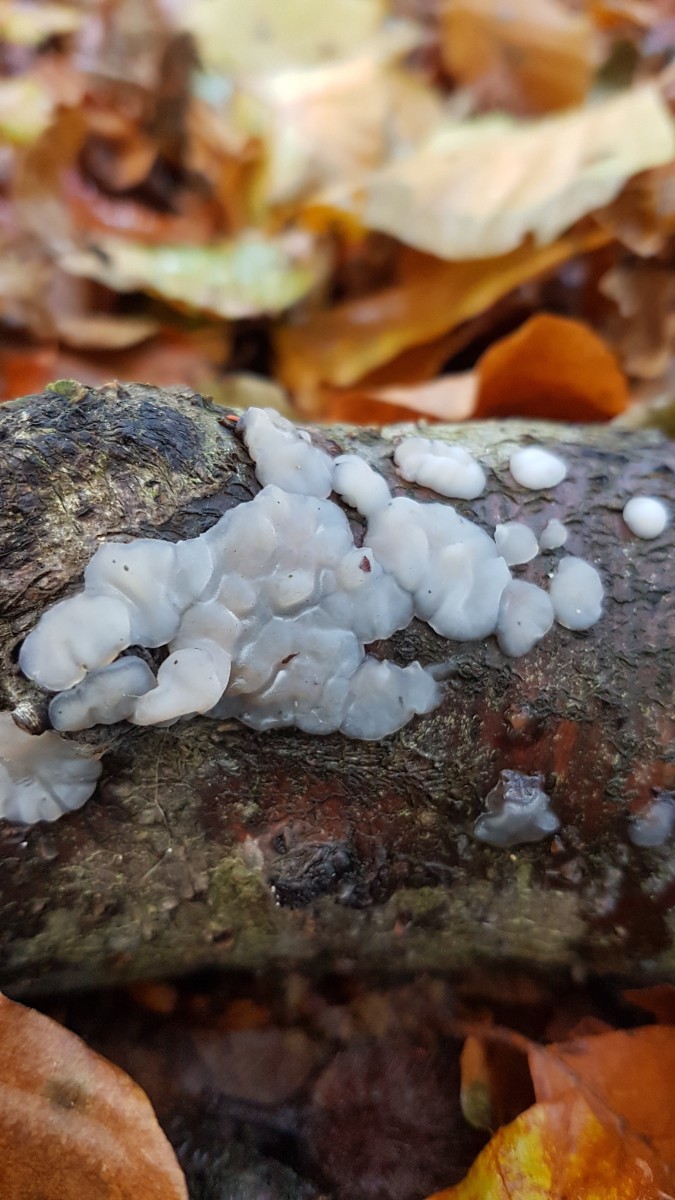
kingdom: Fungi
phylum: Basidiomycota
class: Agaricomycetes
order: Auriculariales
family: Auriculariaceae
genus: Exidia
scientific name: Exidia thuretiana
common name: hvidlig bævretop
